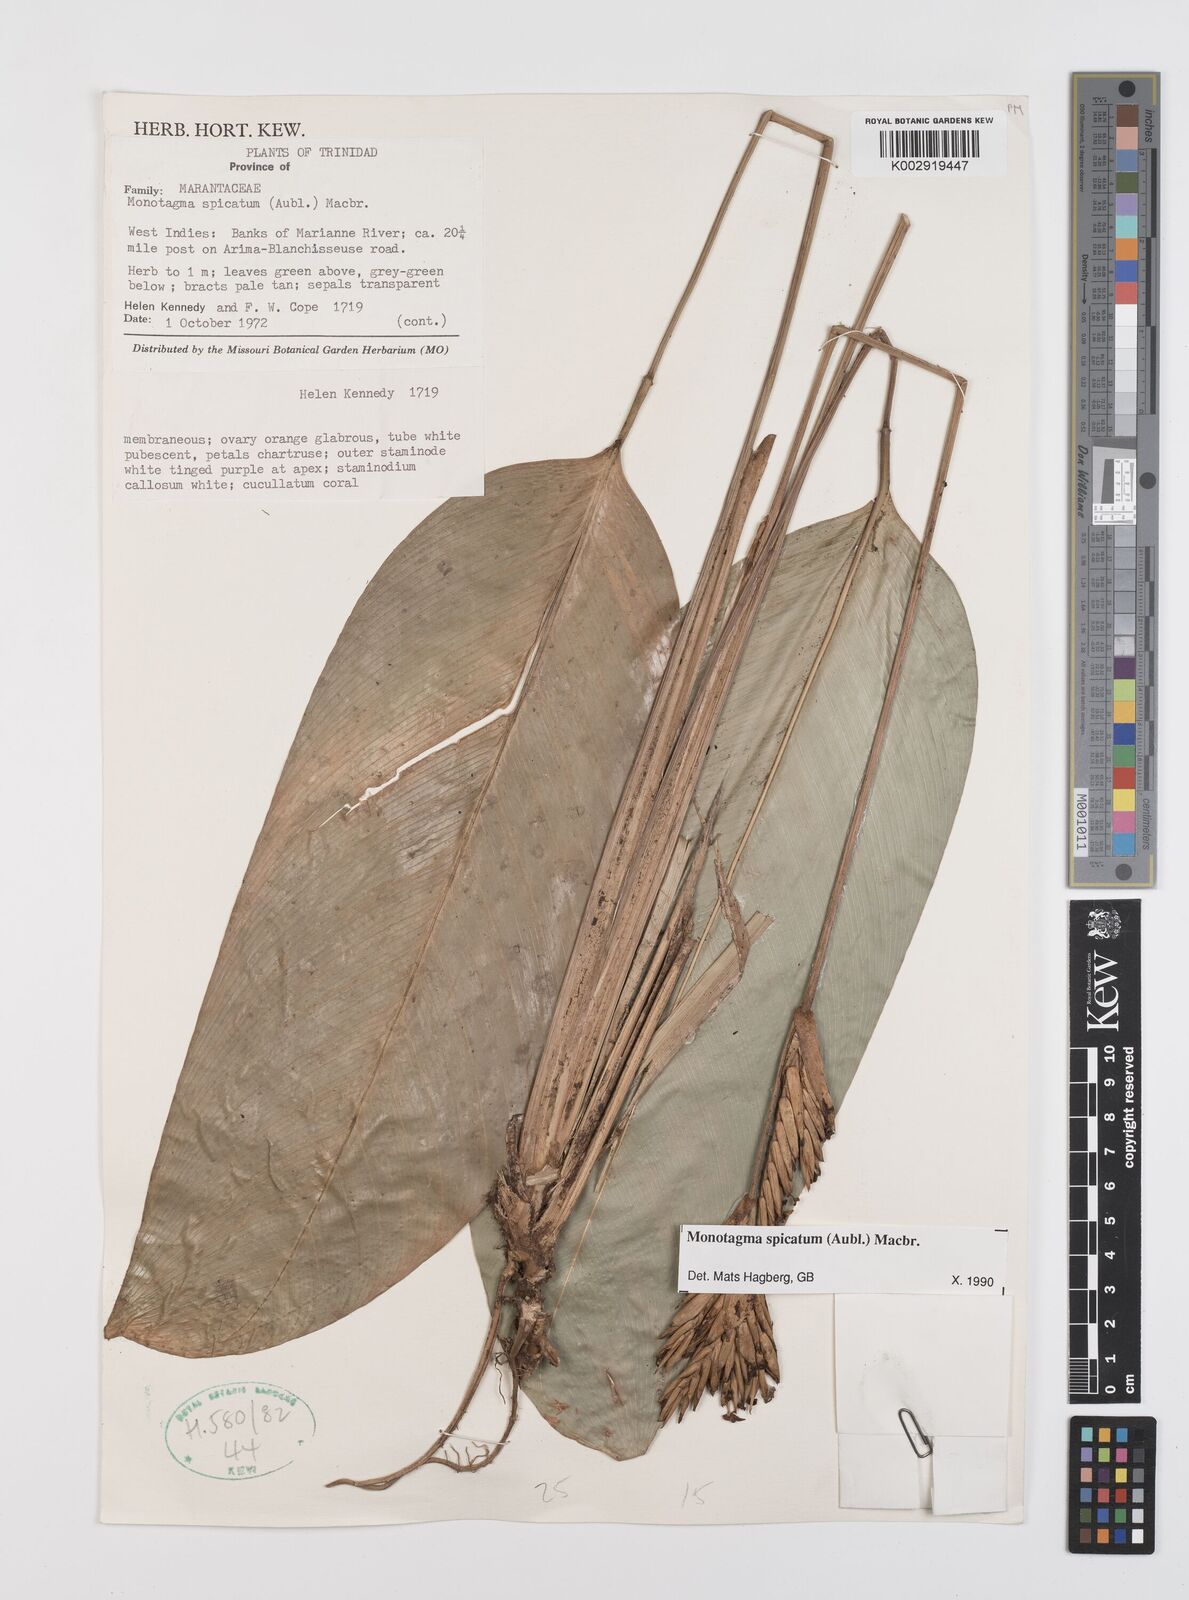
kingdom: Plantae
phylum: Tracheophyta
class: Liliopsida
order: Zingiberales
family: Marantaceae
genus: Monotagma
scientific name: Monotagma spicatum
